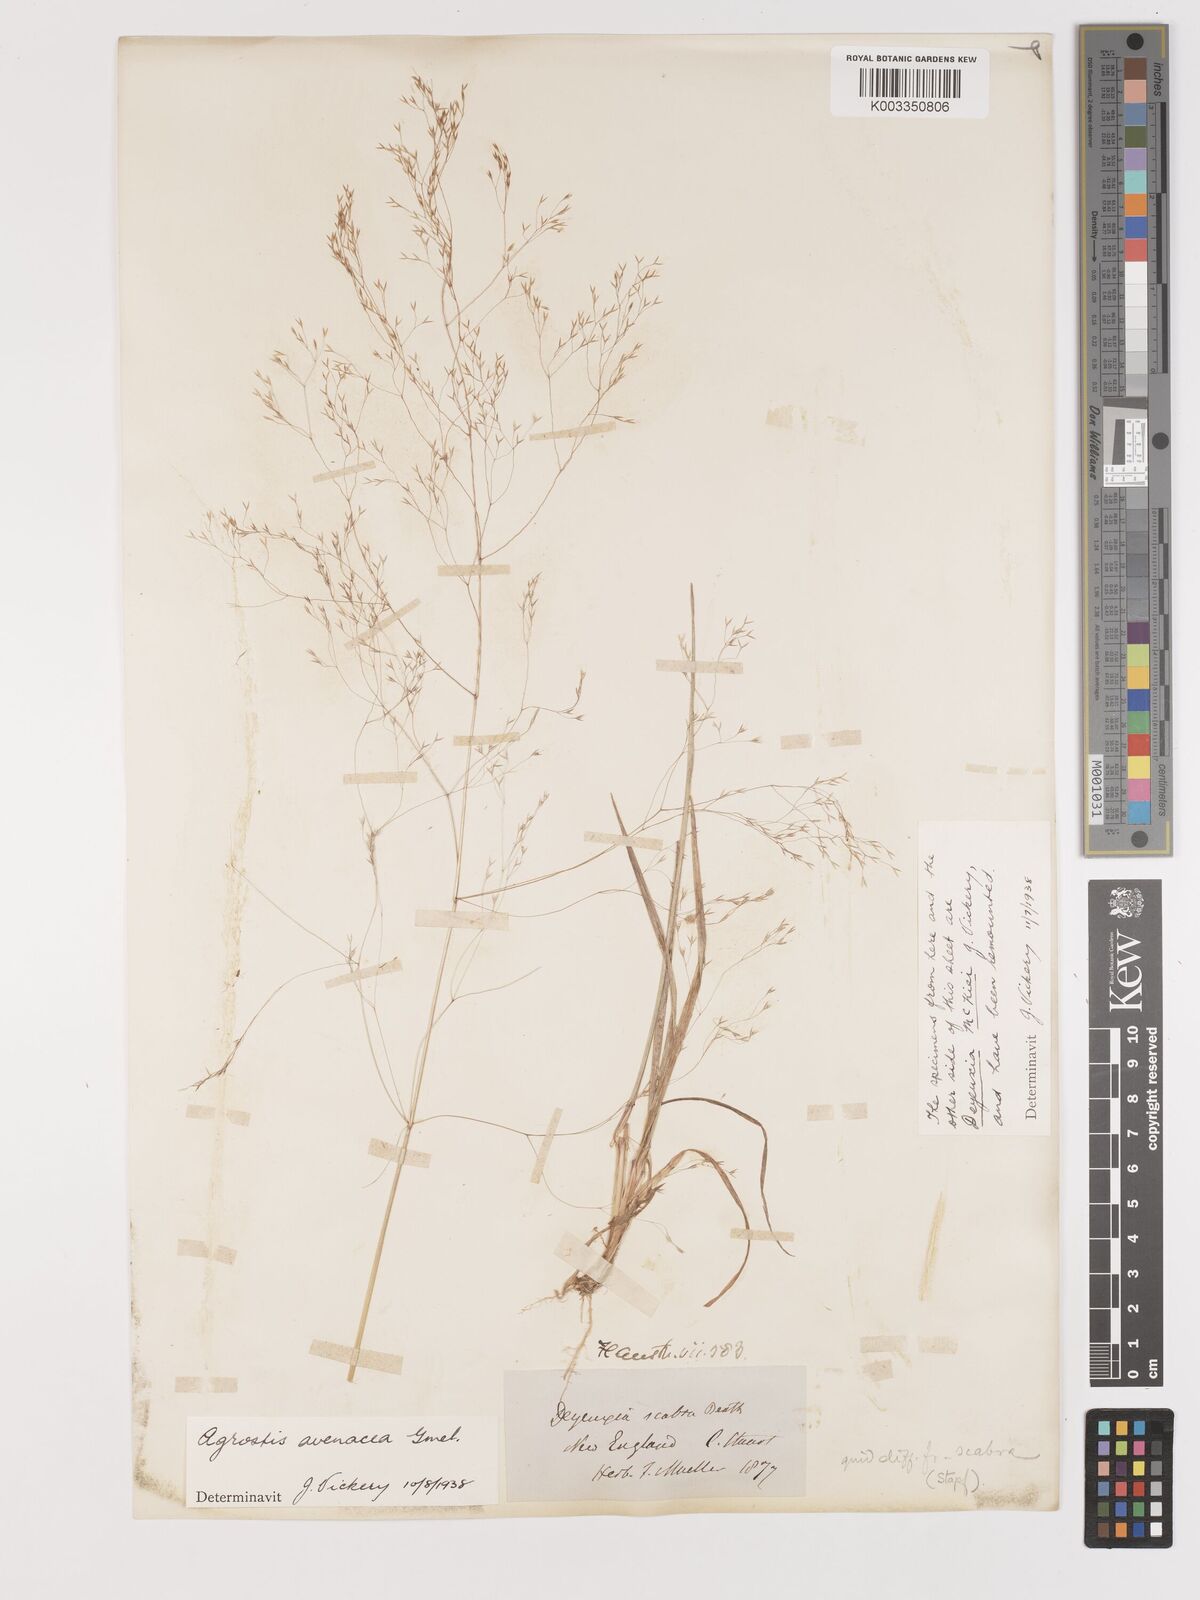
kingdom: Plantae
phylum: Tracheophyta
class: Liliopsida
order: Poales
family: Poaceae
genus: Lachnagrostis
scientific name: Lachnagrostis filiformis
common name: Bentgrass
